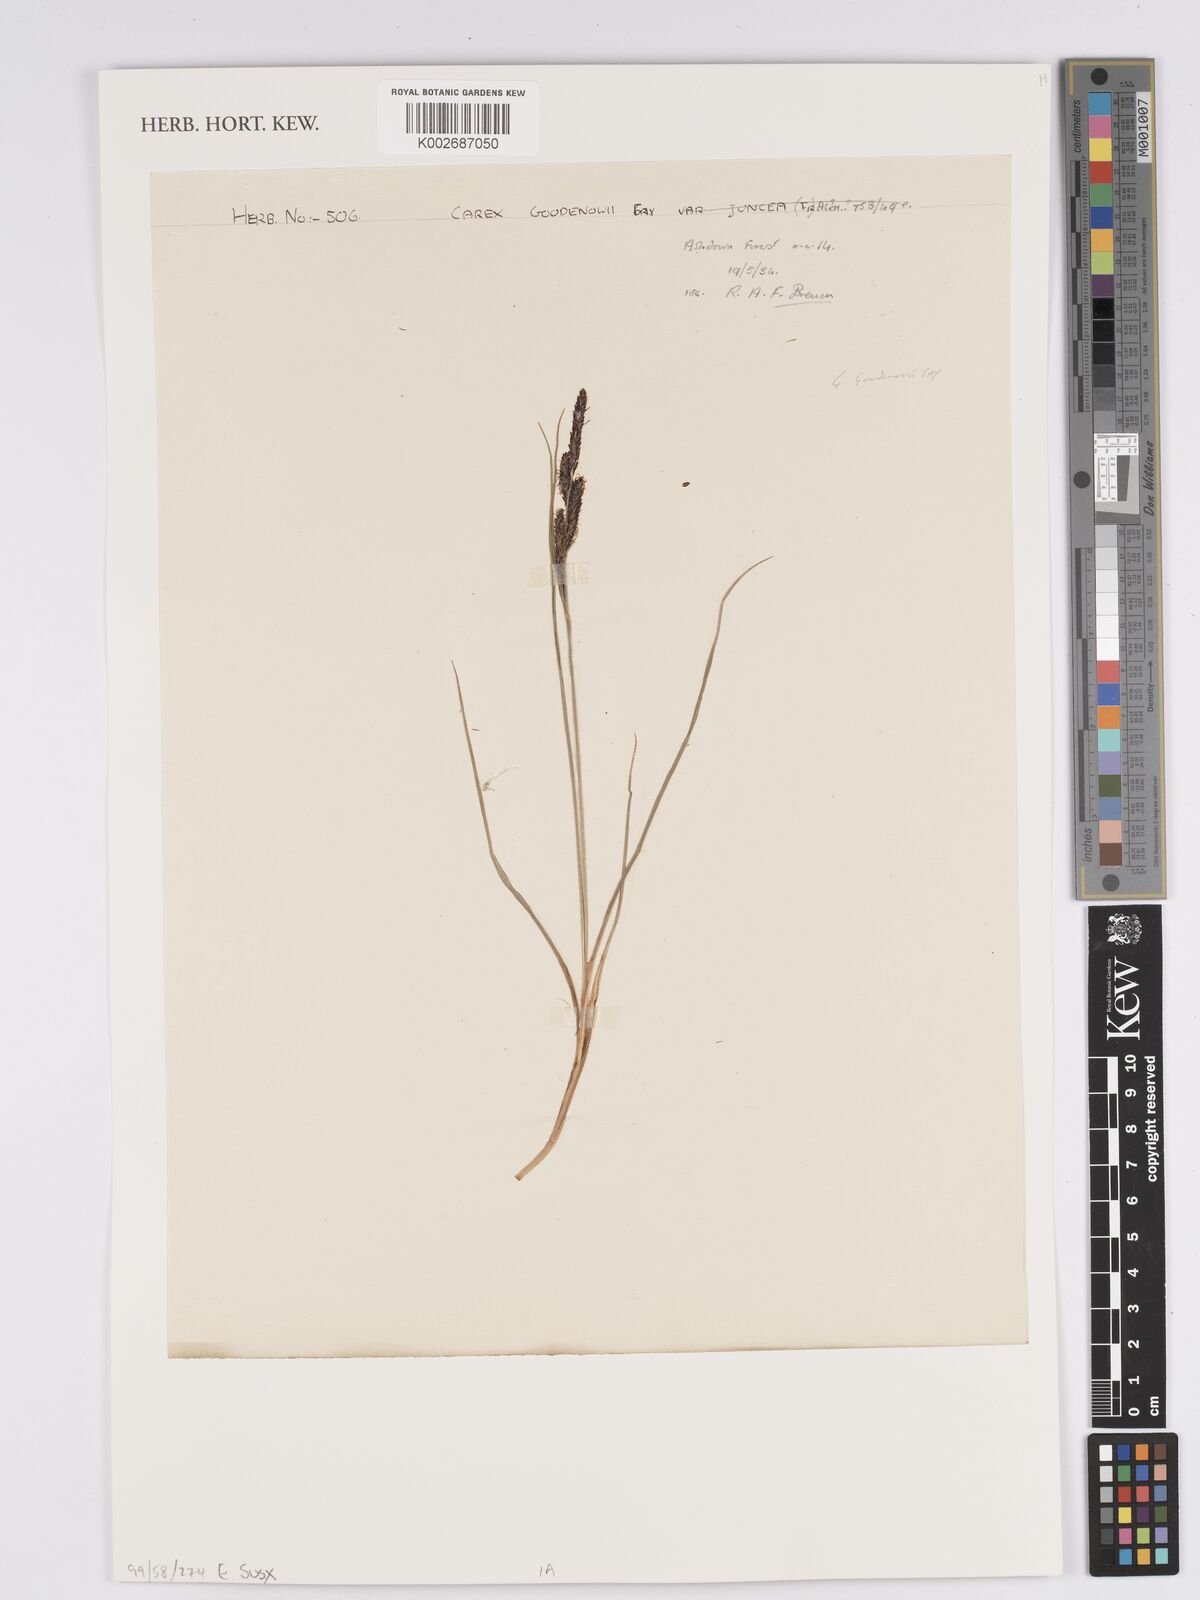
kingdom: Plantae
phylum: Tracheophyta
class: Liliopsida
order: Poales
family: Cyperaceae
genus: Carex
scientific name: Carex nigra
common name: Common sedge
